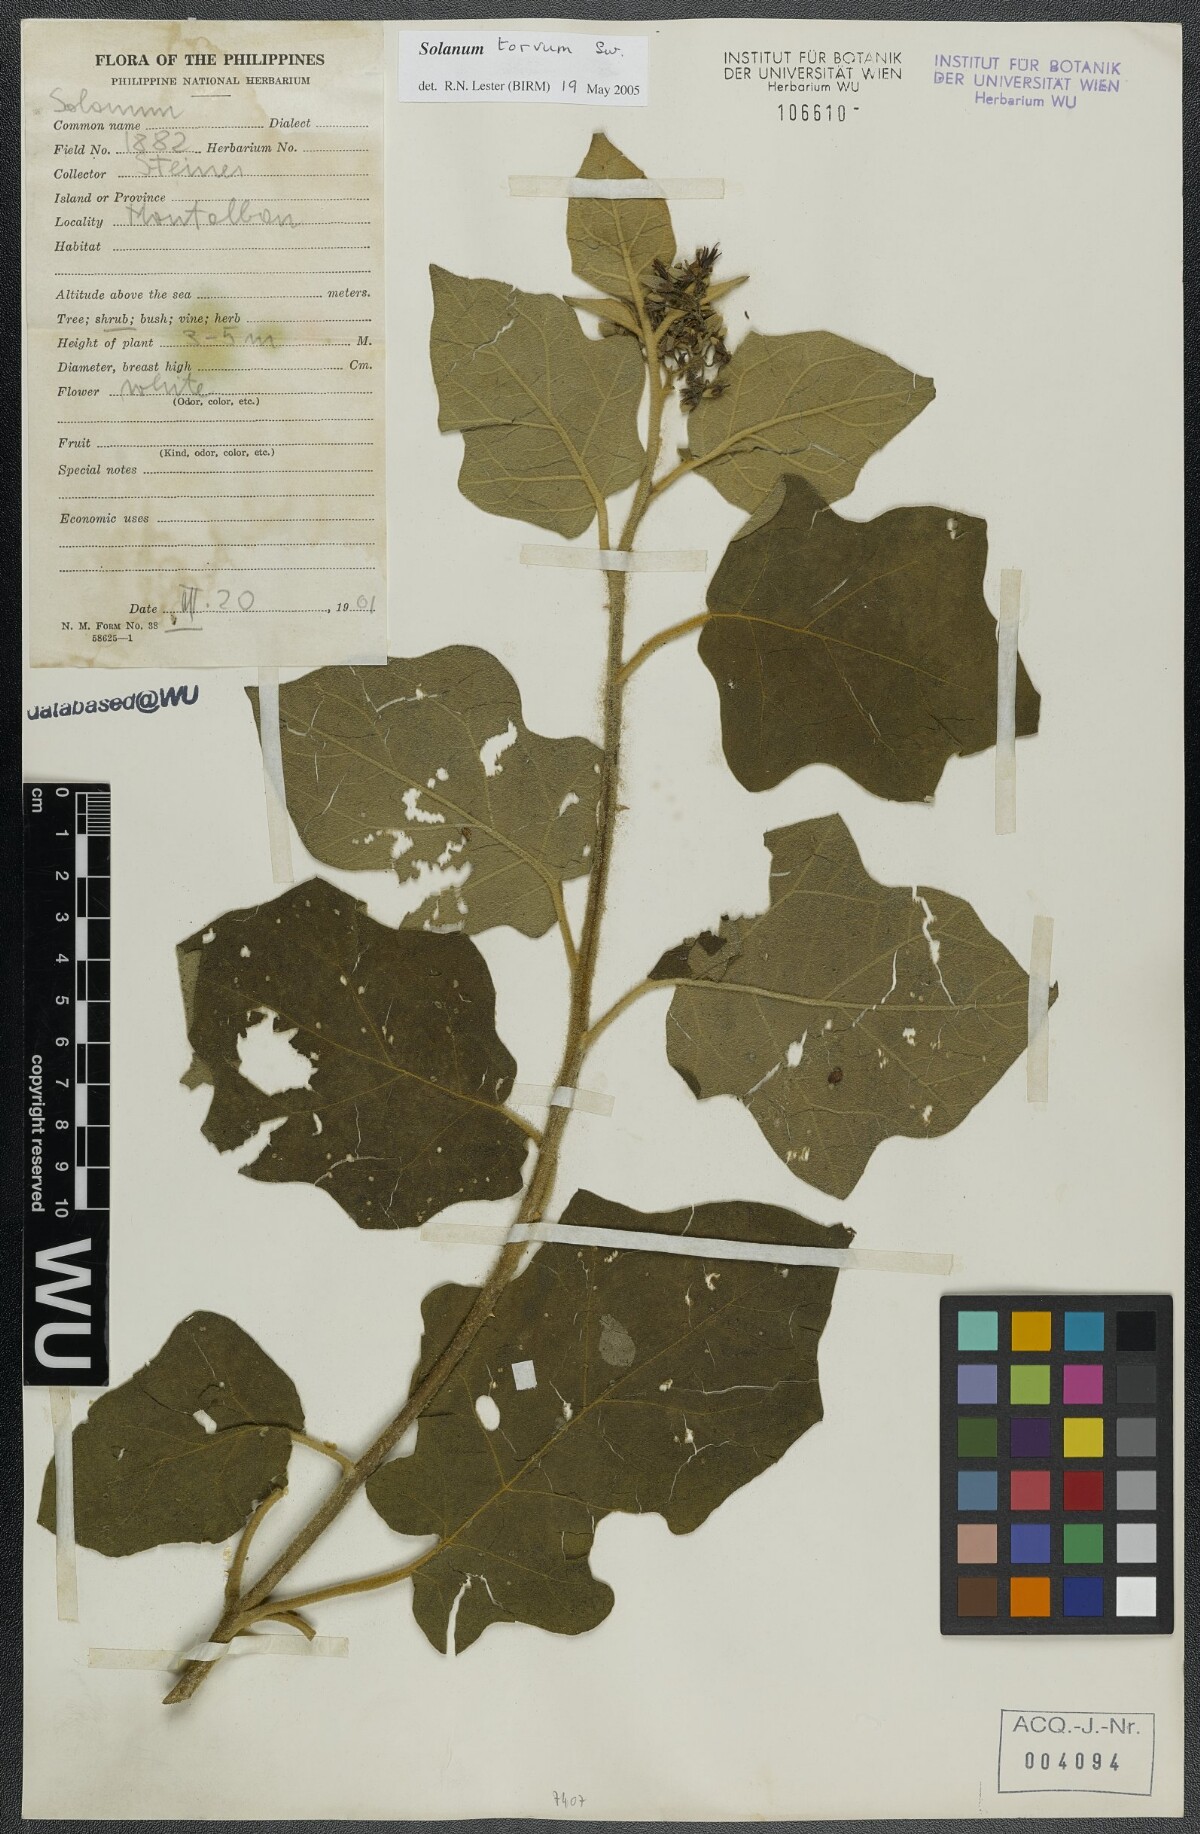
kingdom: Plantae
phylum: Tracheophyta
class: Magnoliopsida
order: Solanales
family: Solanaceae
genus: Solanum
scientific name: Solanum torvum
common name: Turkey berry
